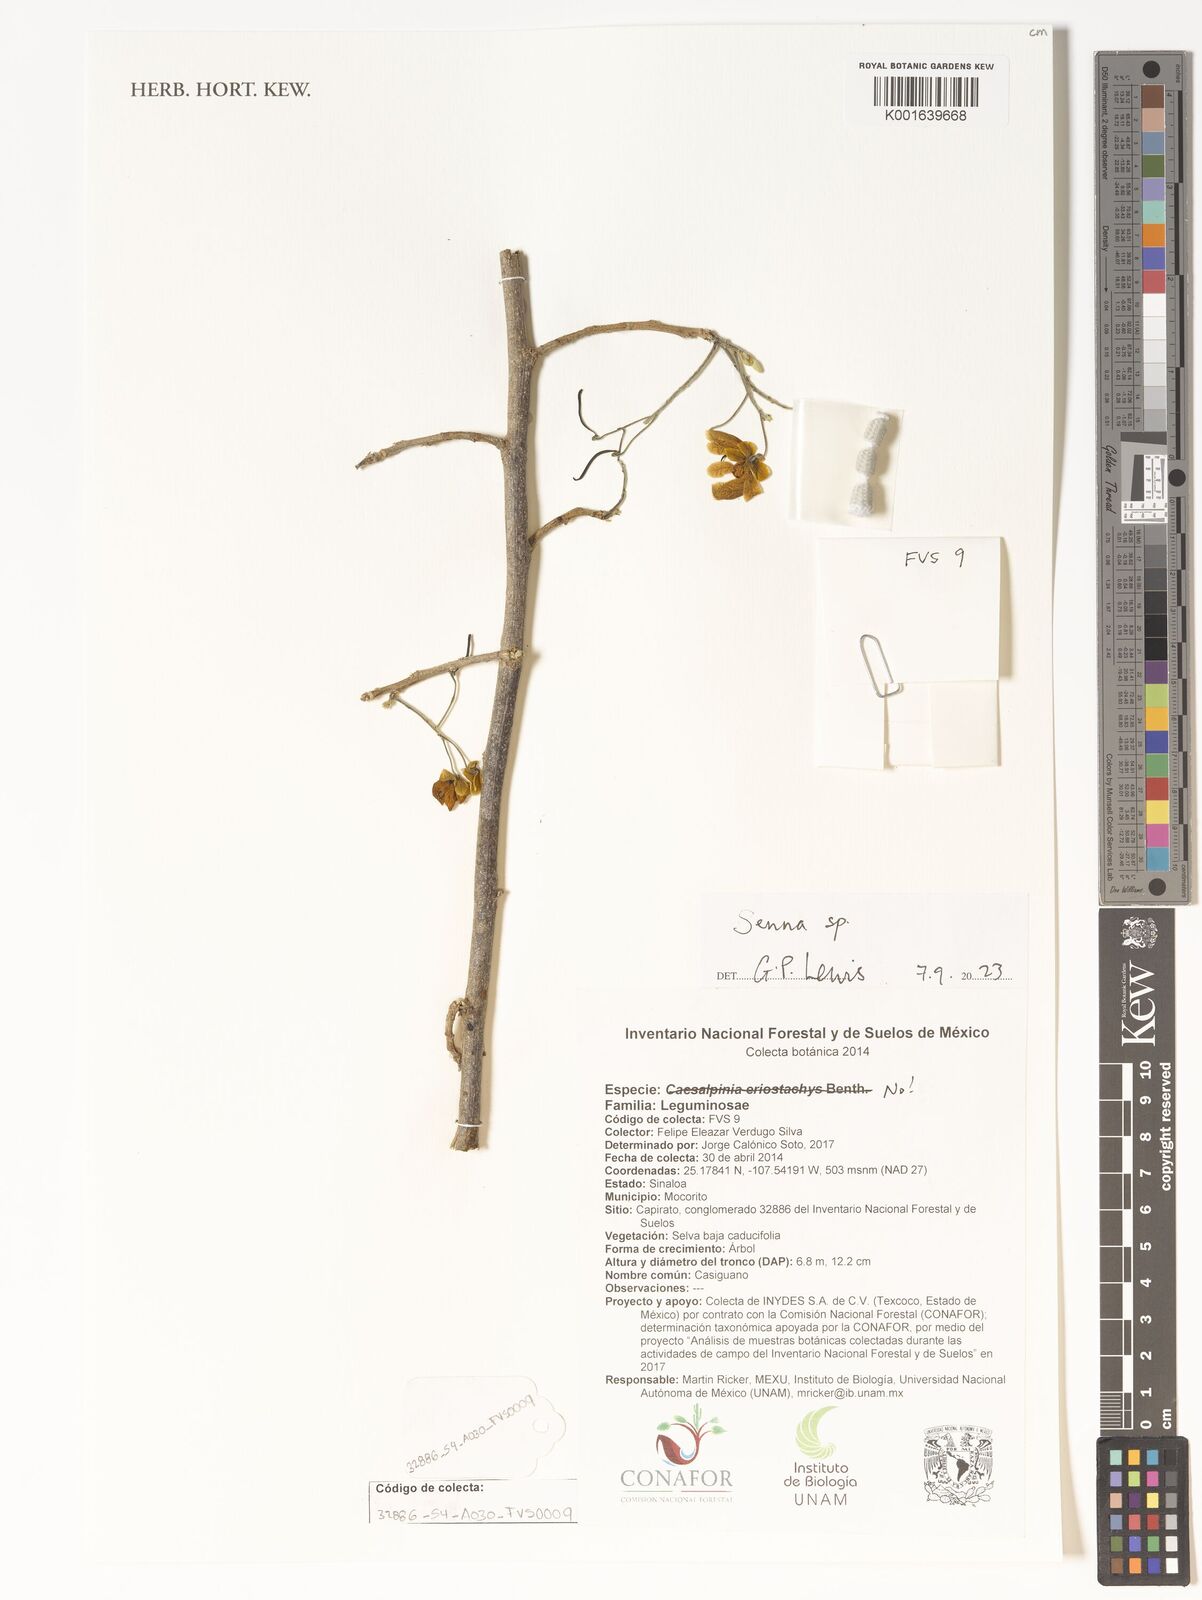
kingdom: Plantae
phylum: Tracheophyta
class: Magnoliopsida
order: Fabales
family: Fabaceae
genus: Senna
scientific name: Senna
